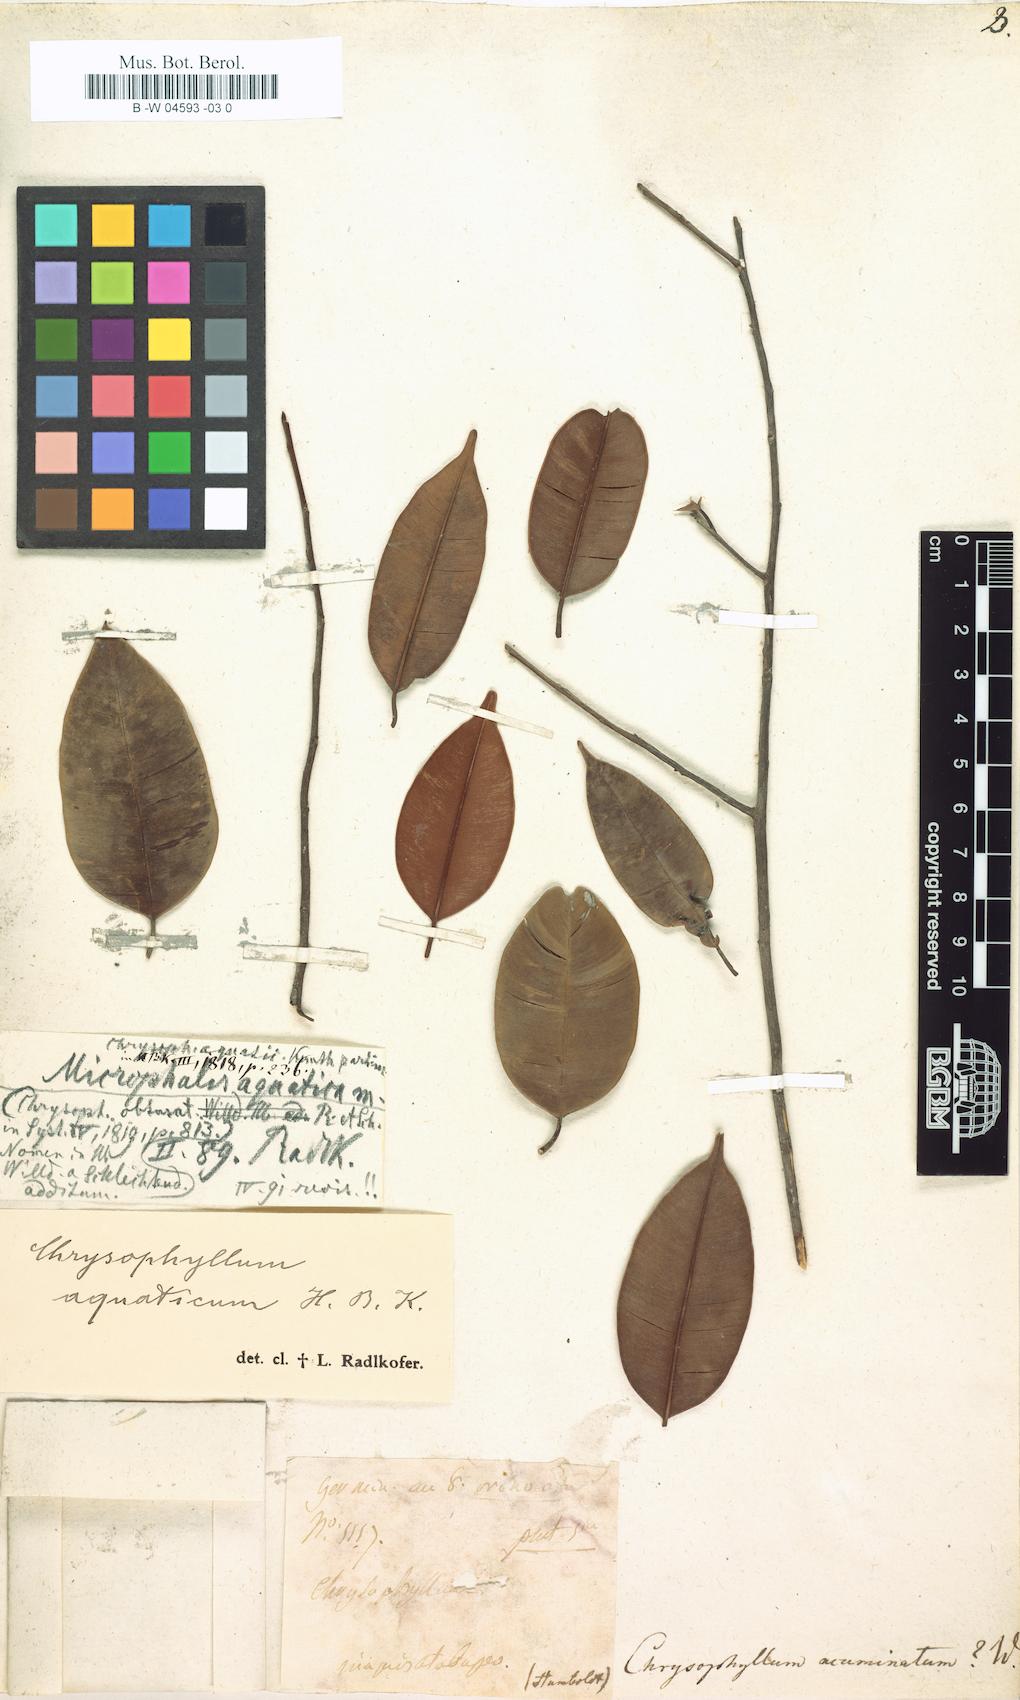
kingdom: Plantae
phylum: Tracheophyta
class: Magnoliopsida
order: Ericales
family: Sapotaceae
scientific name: Sapotaceae
